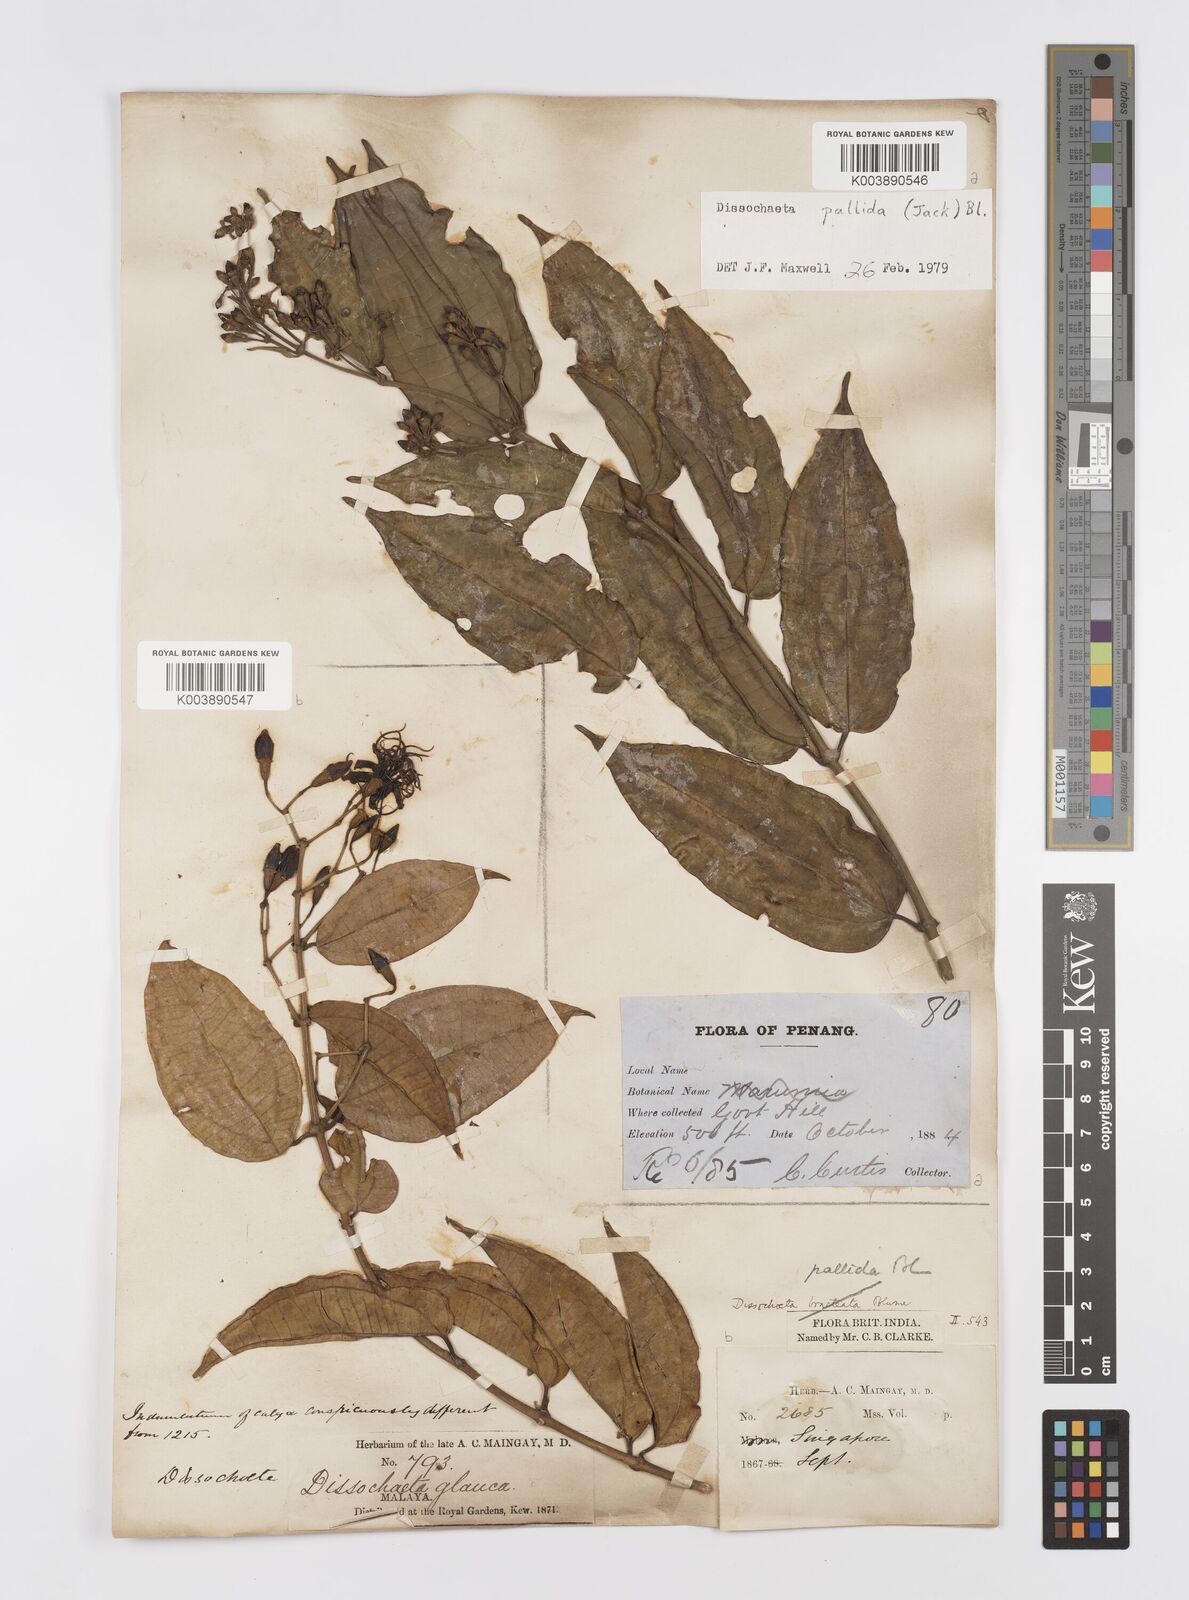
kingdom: Plantae
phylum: Tracheophyta
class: Magnoliopsida
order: Myrtales
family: Melastomataceae
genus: Dissochaeta
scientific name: Dissochaeta pallida
